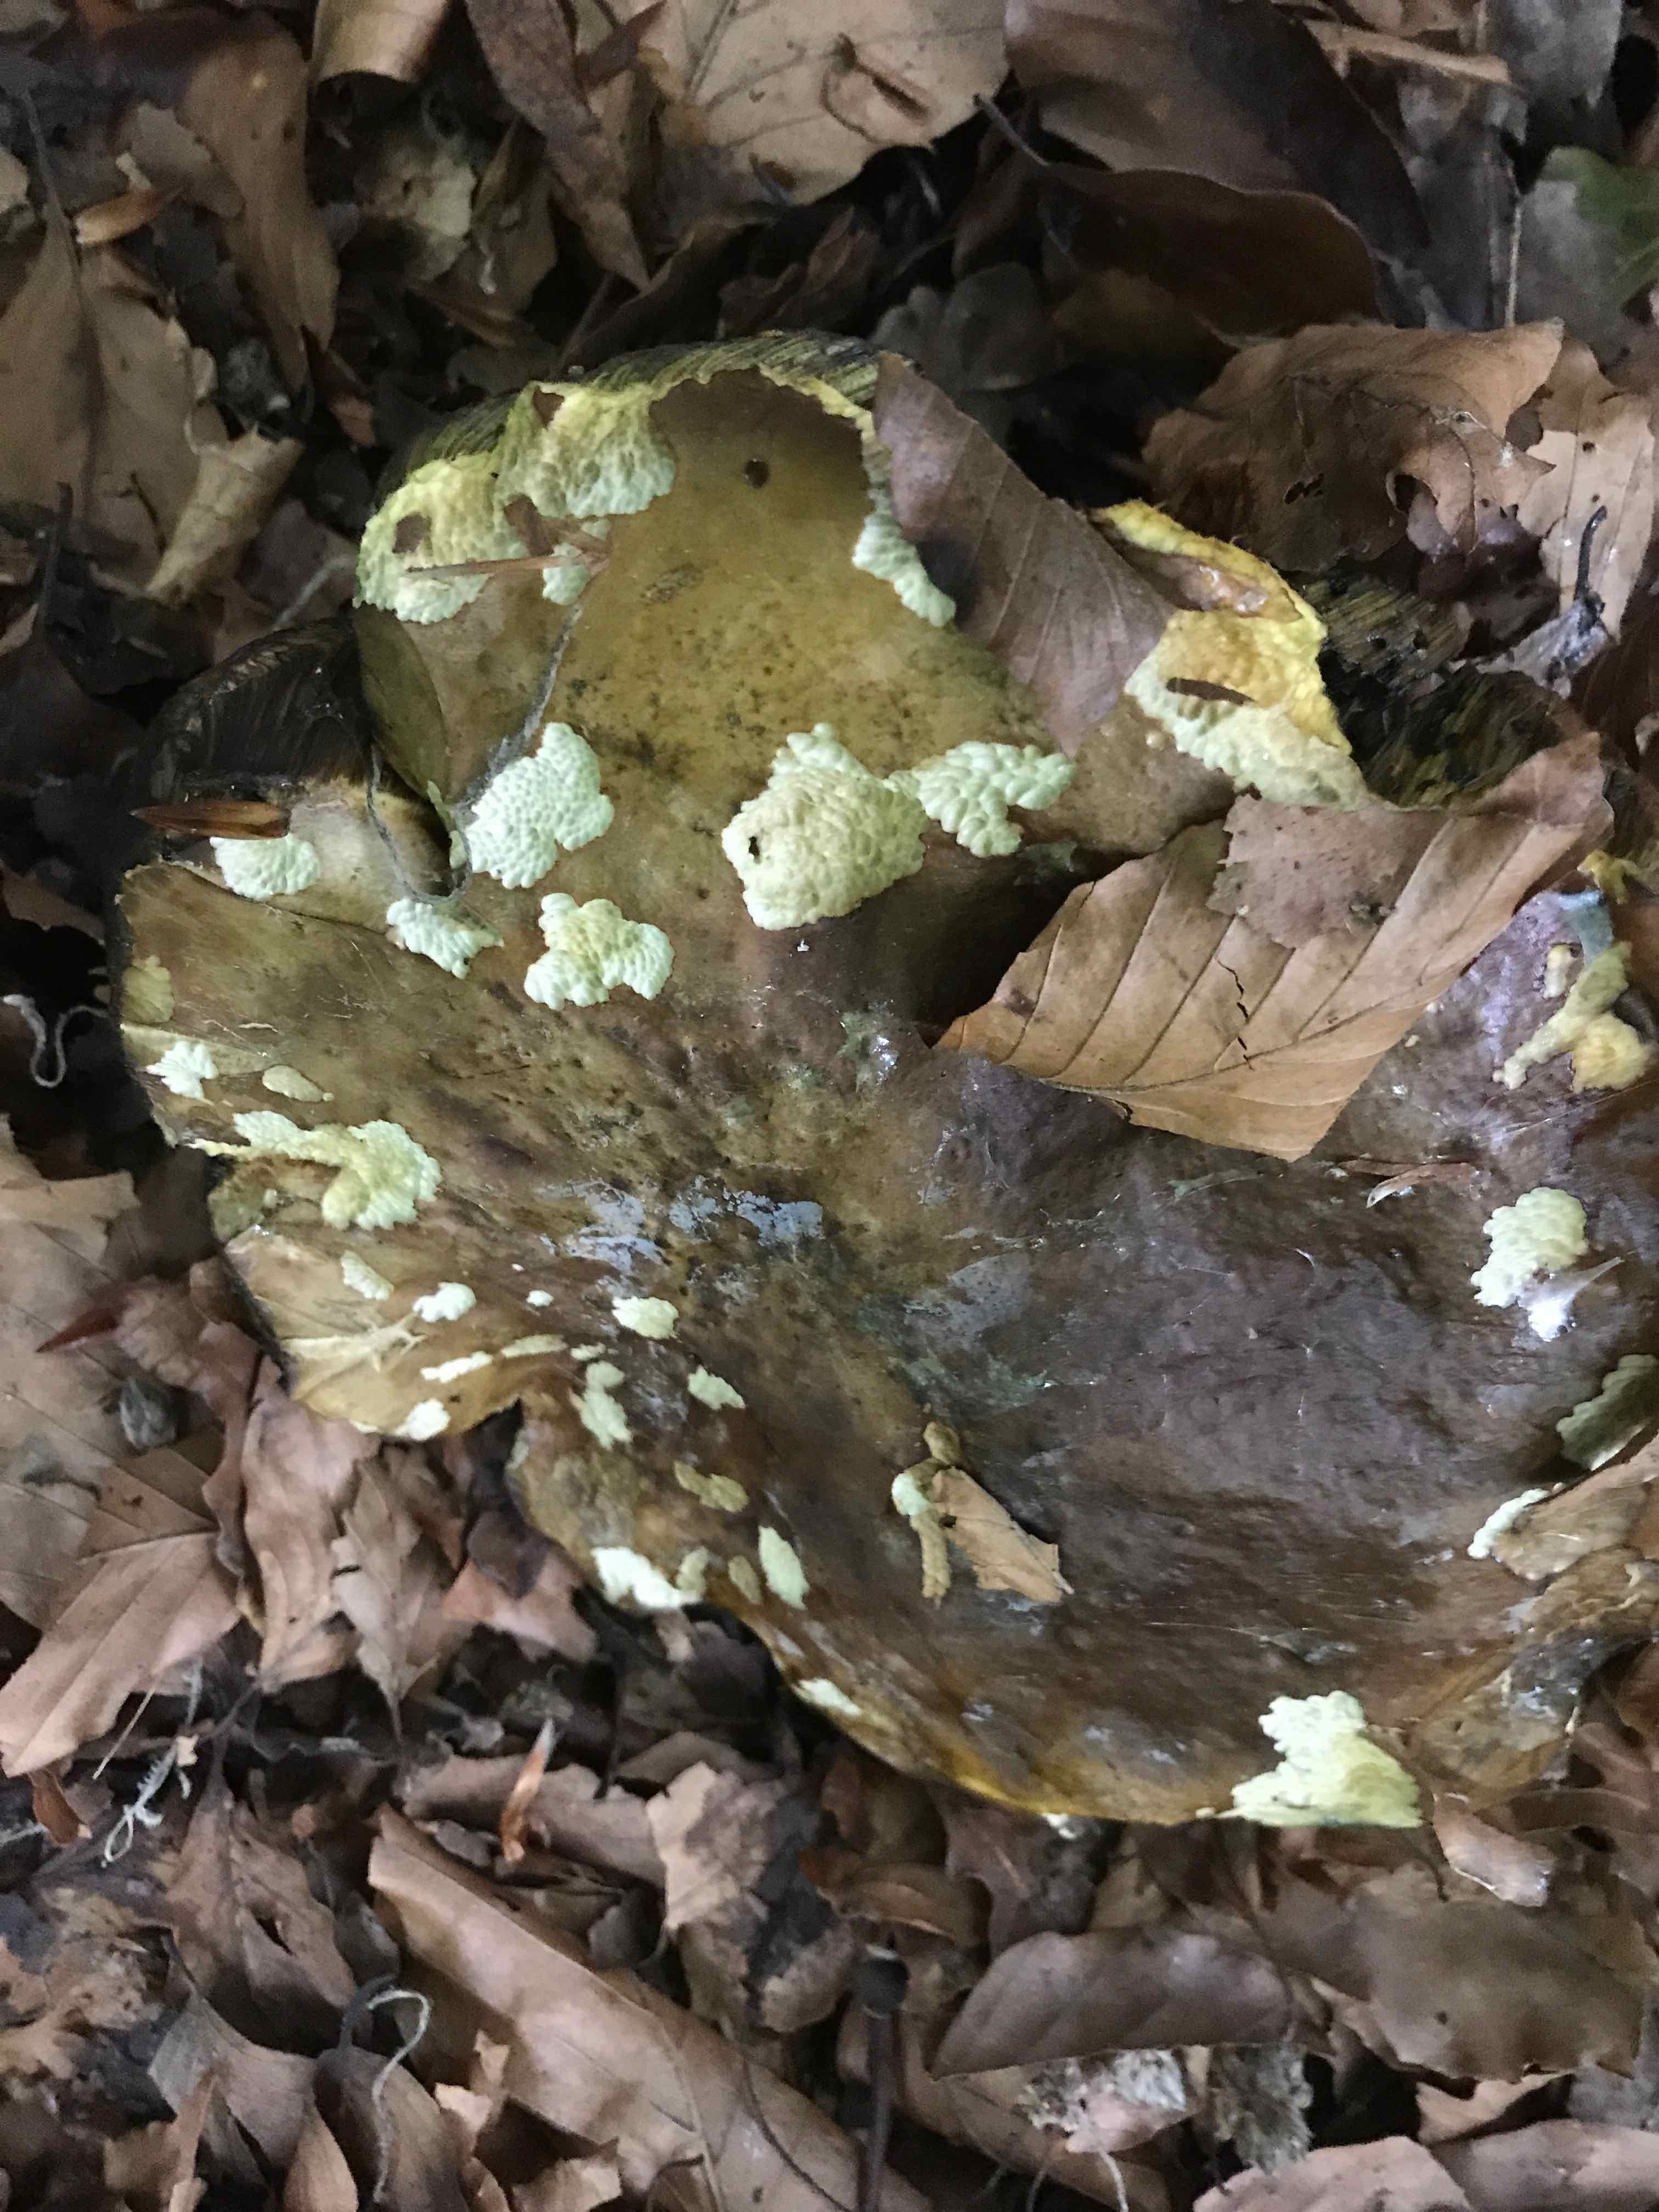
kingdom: Fungi
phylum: Basidiomycota
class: Agaricomycetes
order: Boletales
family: Boletaceae
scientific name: Boletaceae
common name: rørhatfamilien
